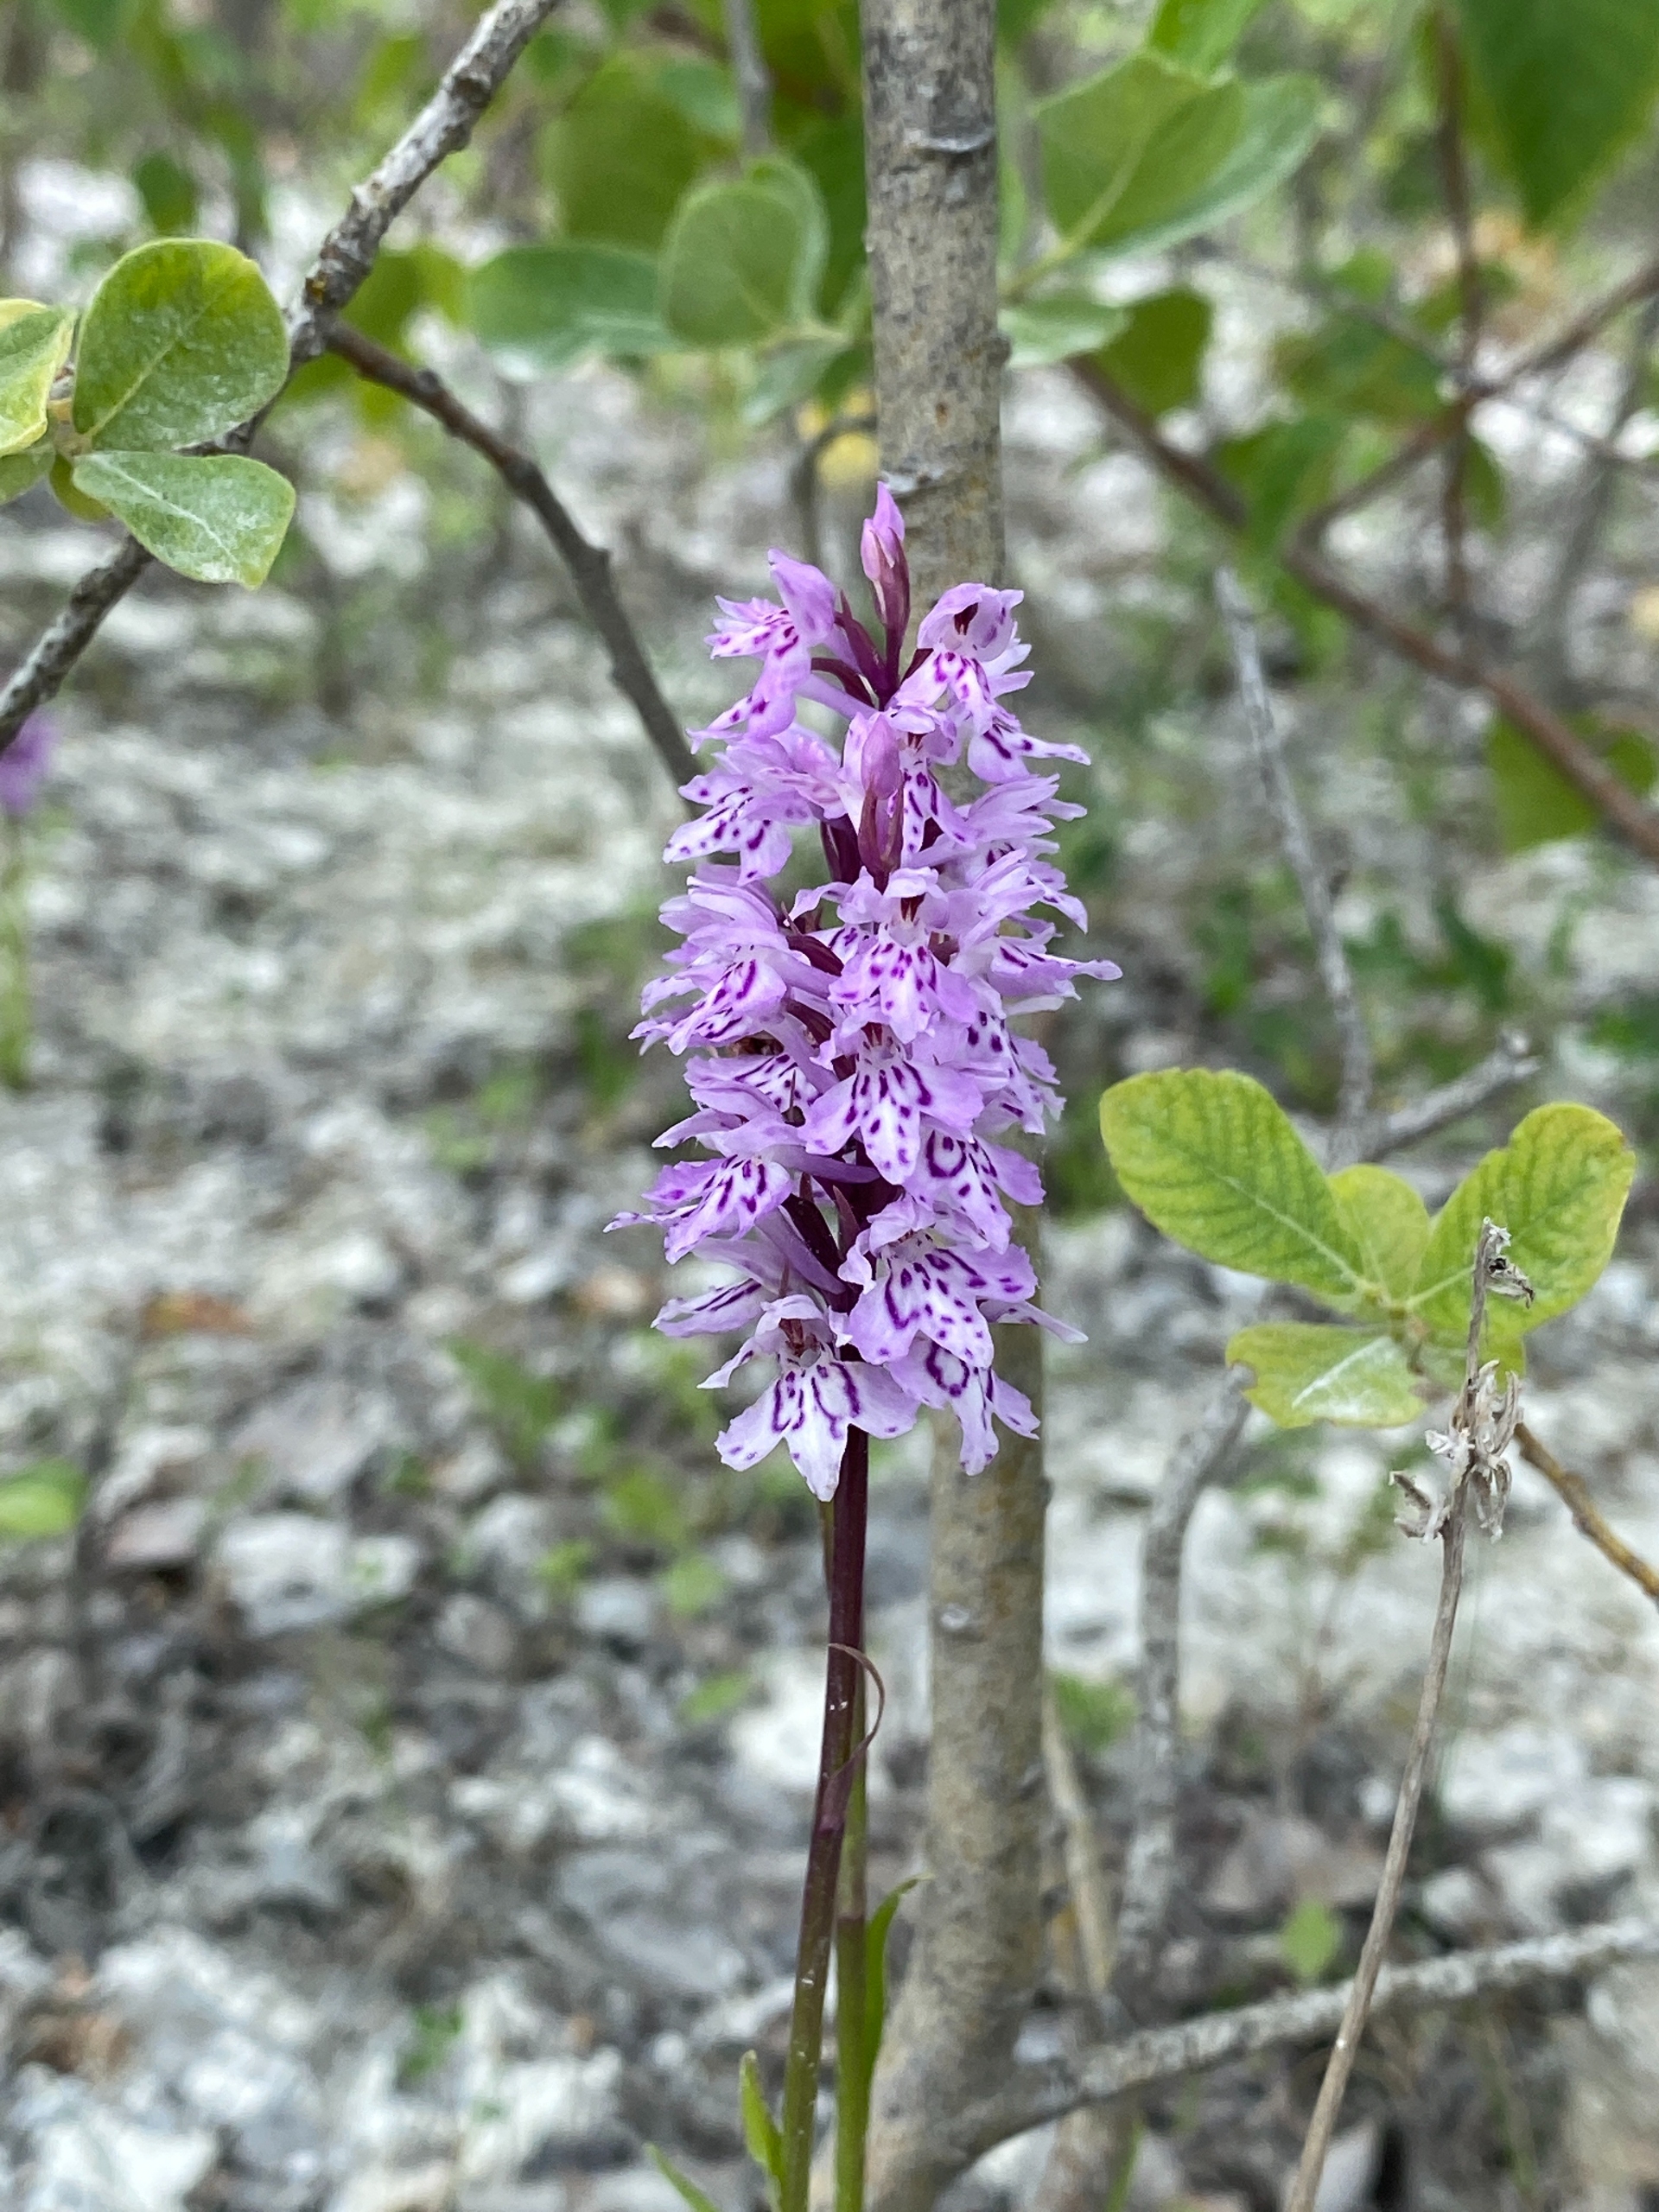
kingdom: Plantae
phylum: Tracheophyta
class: Liliopsida
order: Asparagales
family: Orchidaceae
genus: Dactylorhiza
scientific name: Dactylorhiza maculata
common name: Skov-gøgeurt
